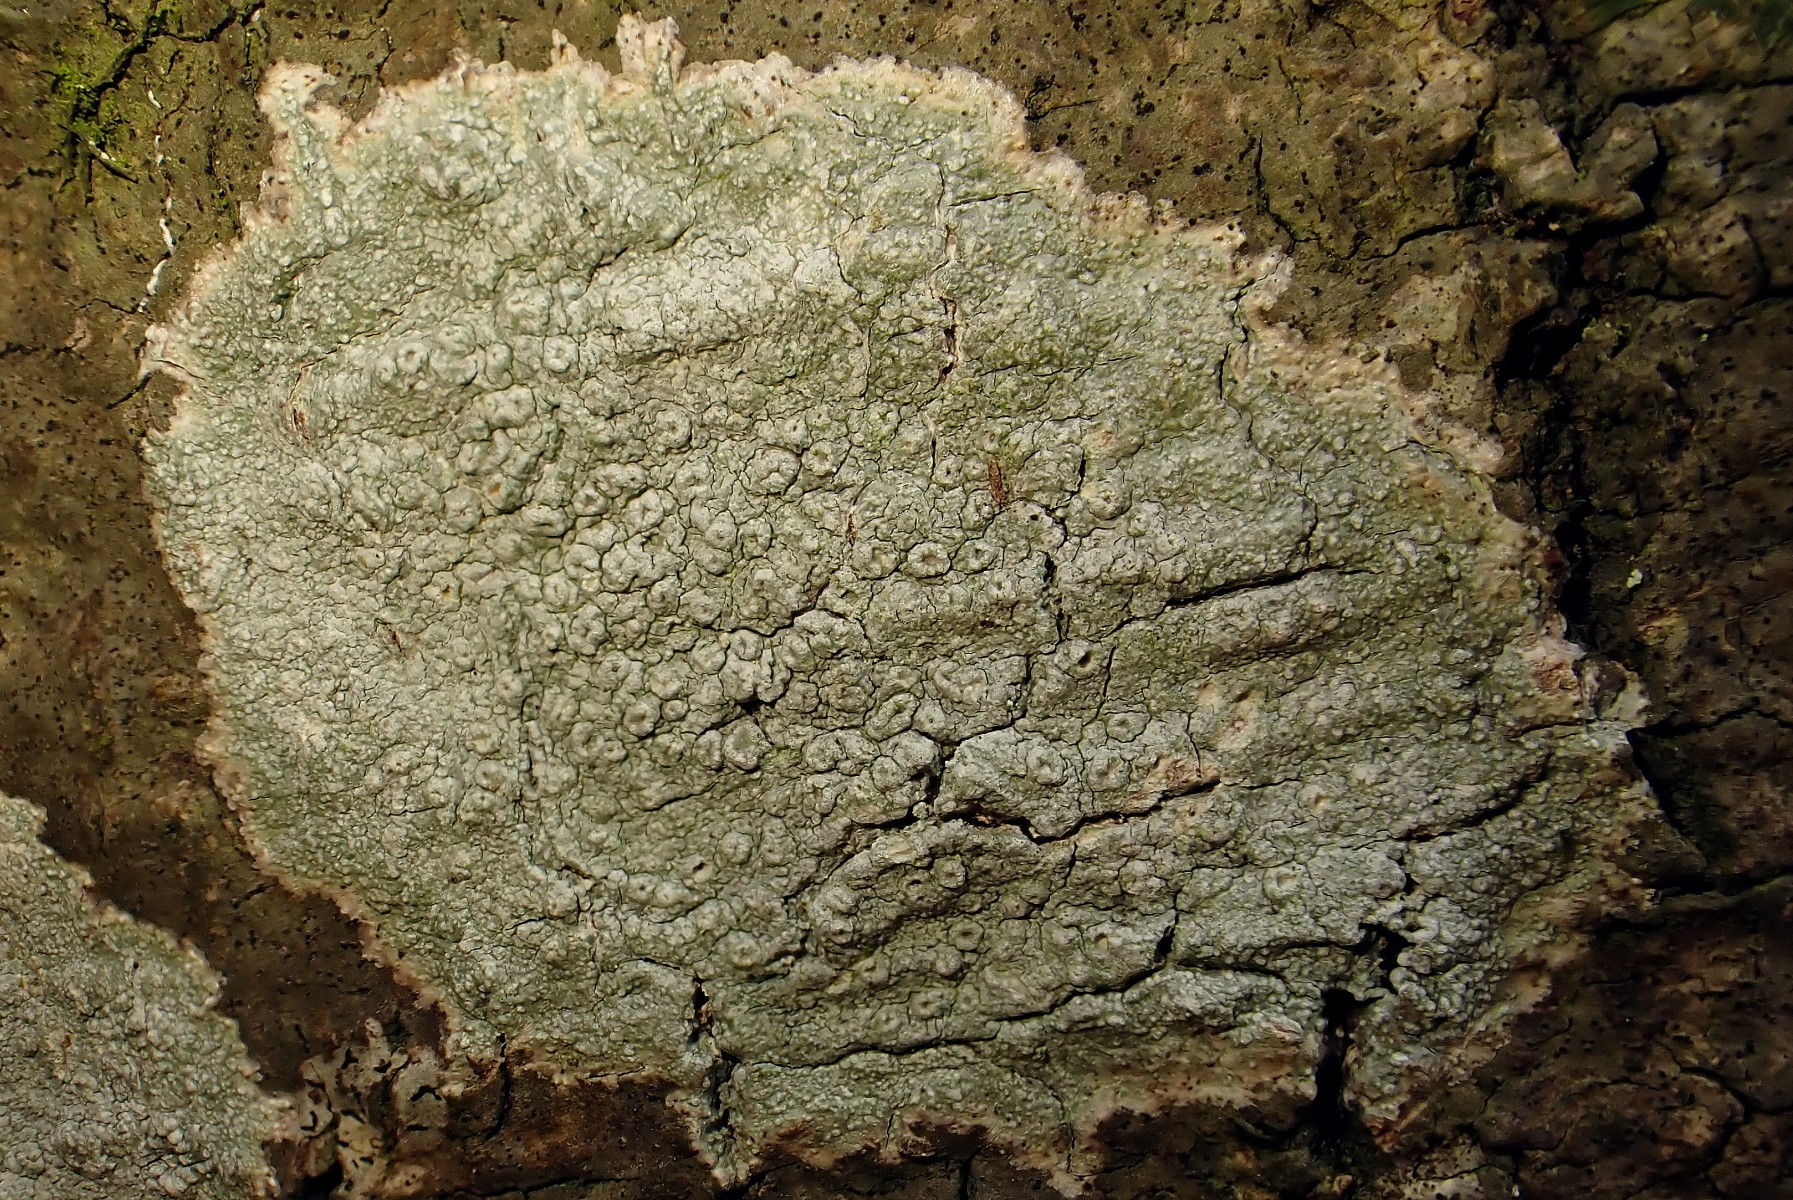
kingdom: Fungi
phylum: Ascomycota
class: Lecanoromycetes
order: Pertusariales
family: Pertusariaceae
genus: Pertusaria
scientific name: Pertusaria hymenea
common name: åben prikvortelav
